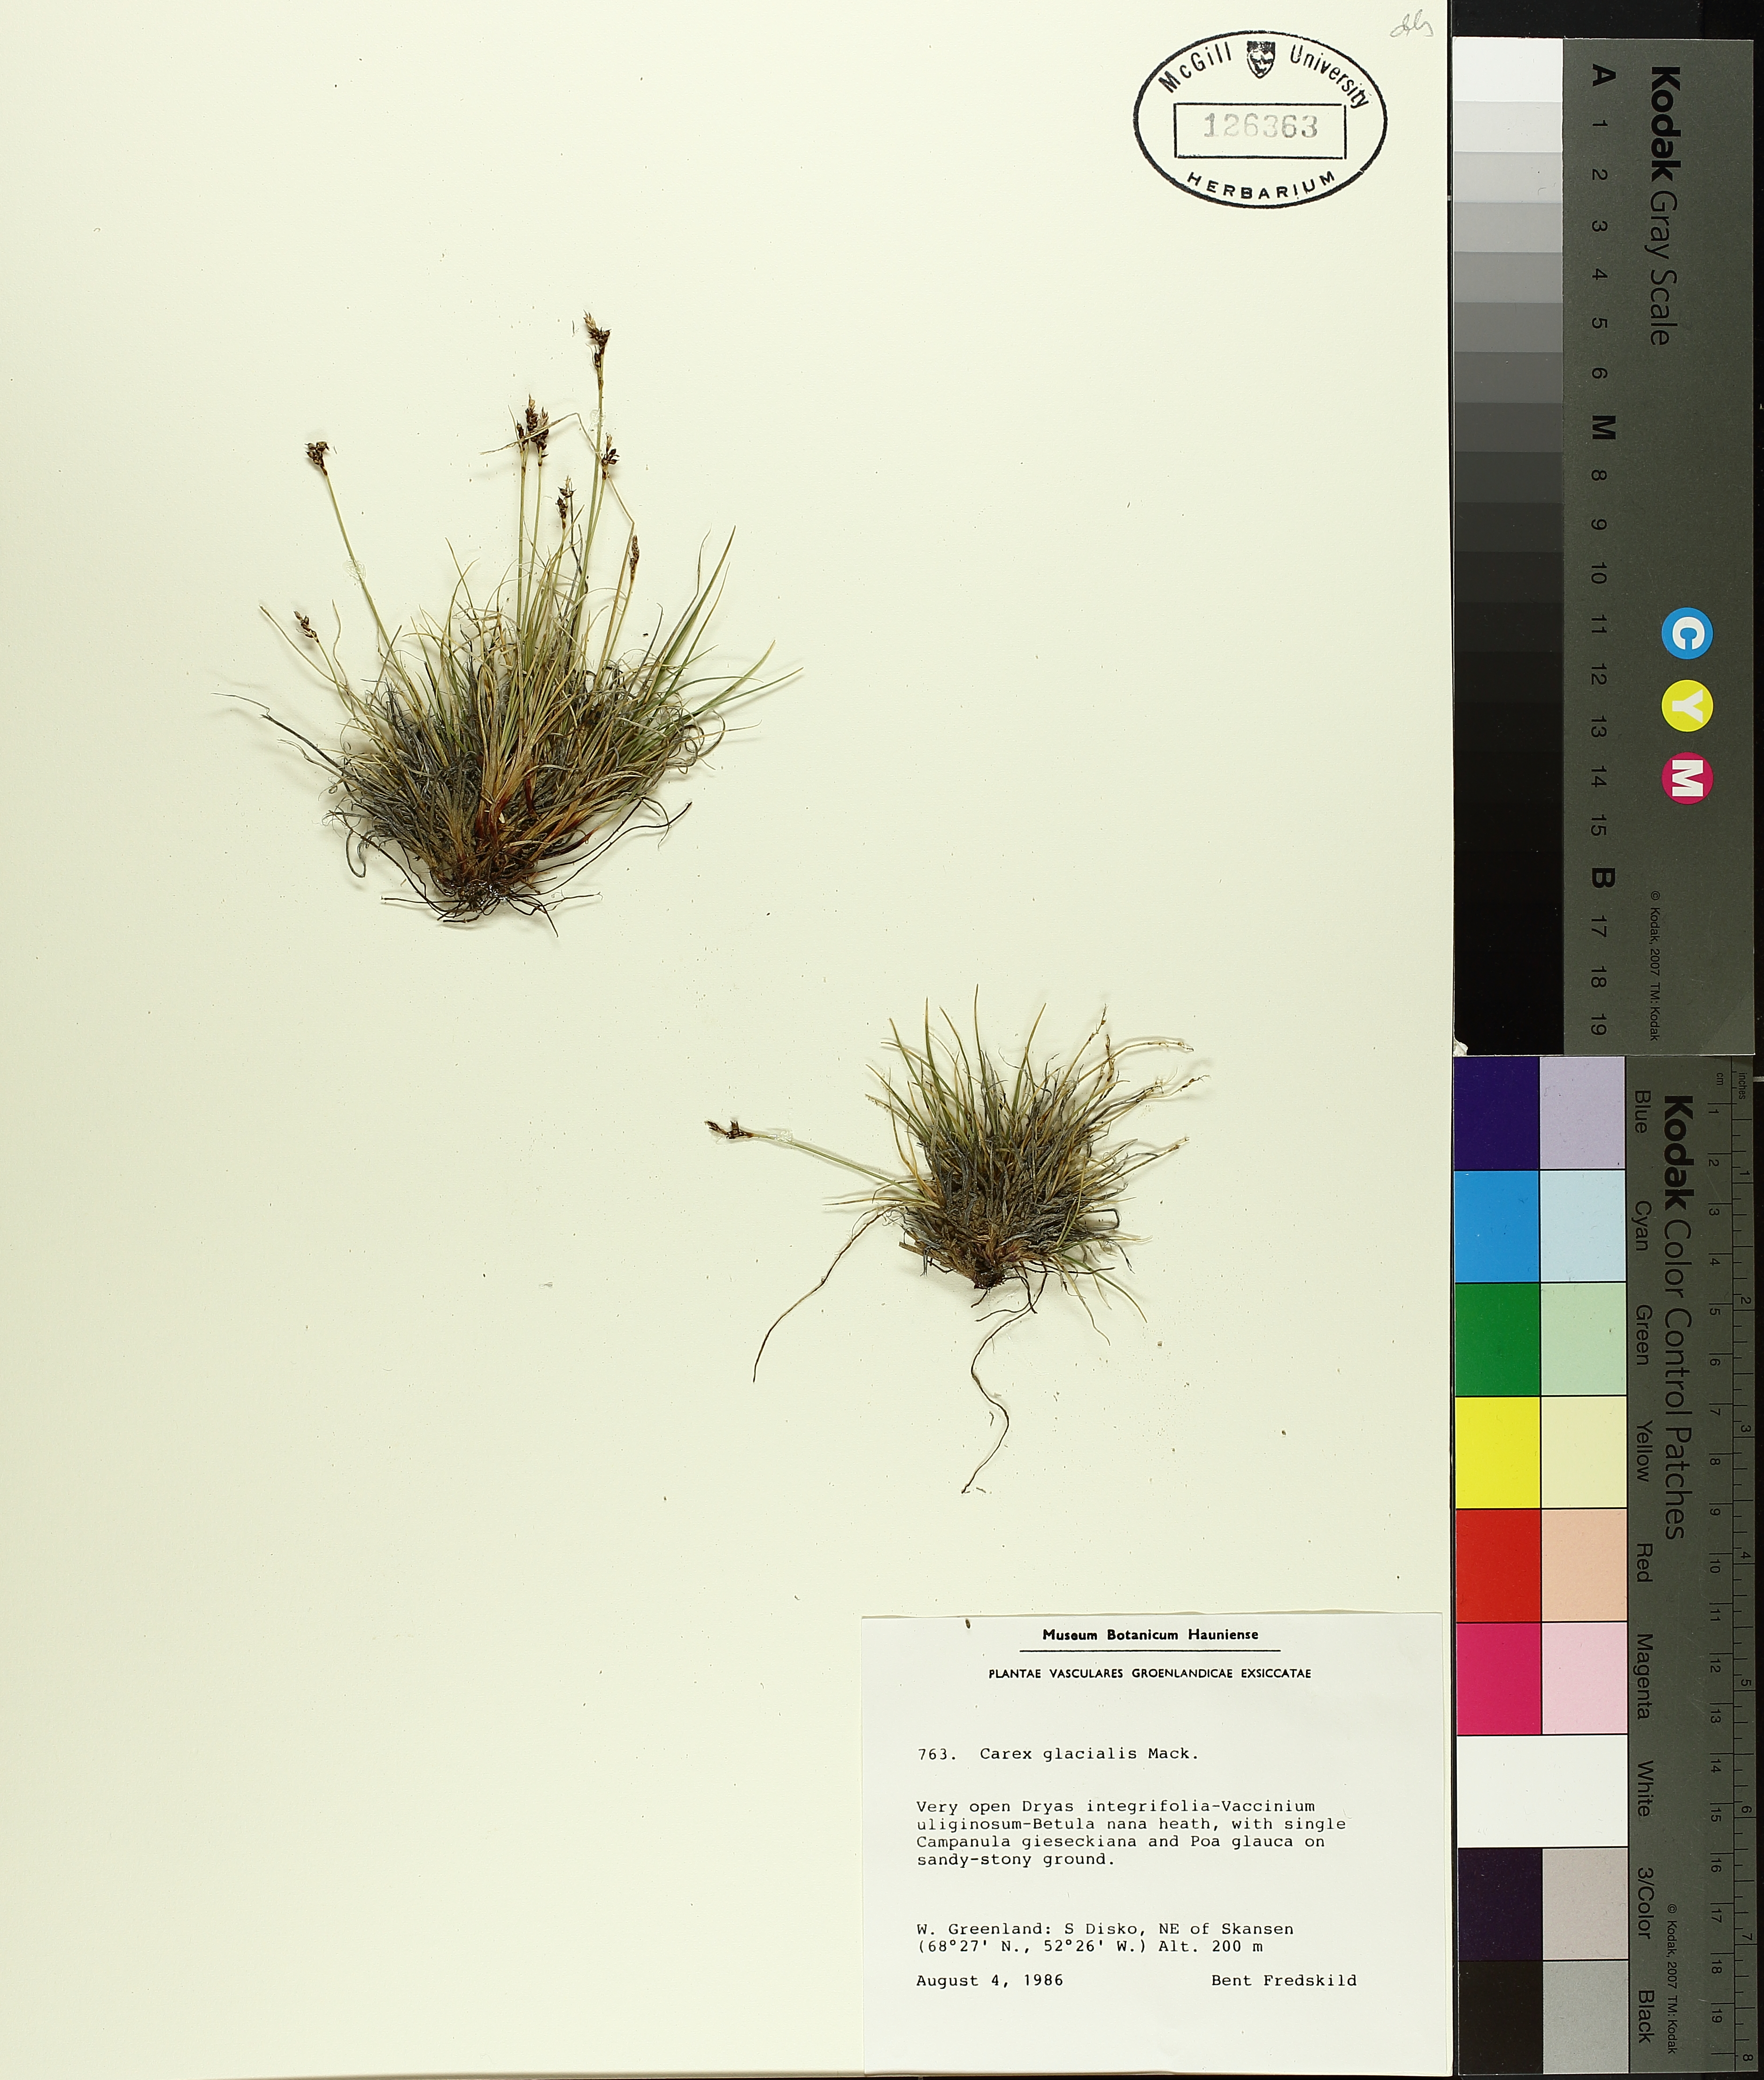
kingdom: Plantae
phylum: Tracheophyta
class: Liliopsida
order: Poales
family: Cyperaceae
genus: Carex
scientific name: Carex glacialis
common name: Newfoundland sedge
